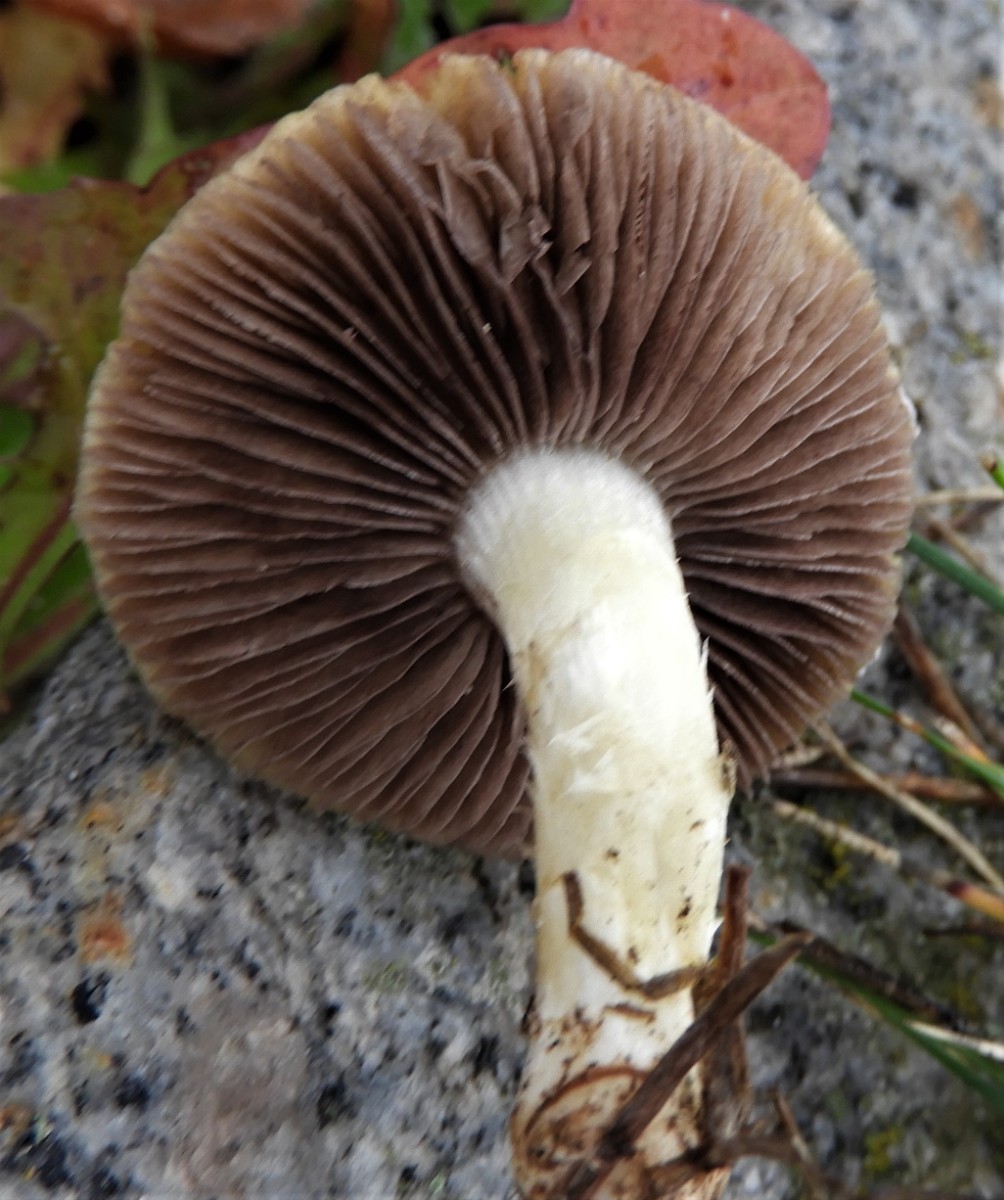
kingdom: Fungi
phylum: Basidiomycota
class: Agaricomycetes
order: Agaricales
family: Hymenogastraceae
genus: Psilocybe
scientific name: Psilocybe coronilla
